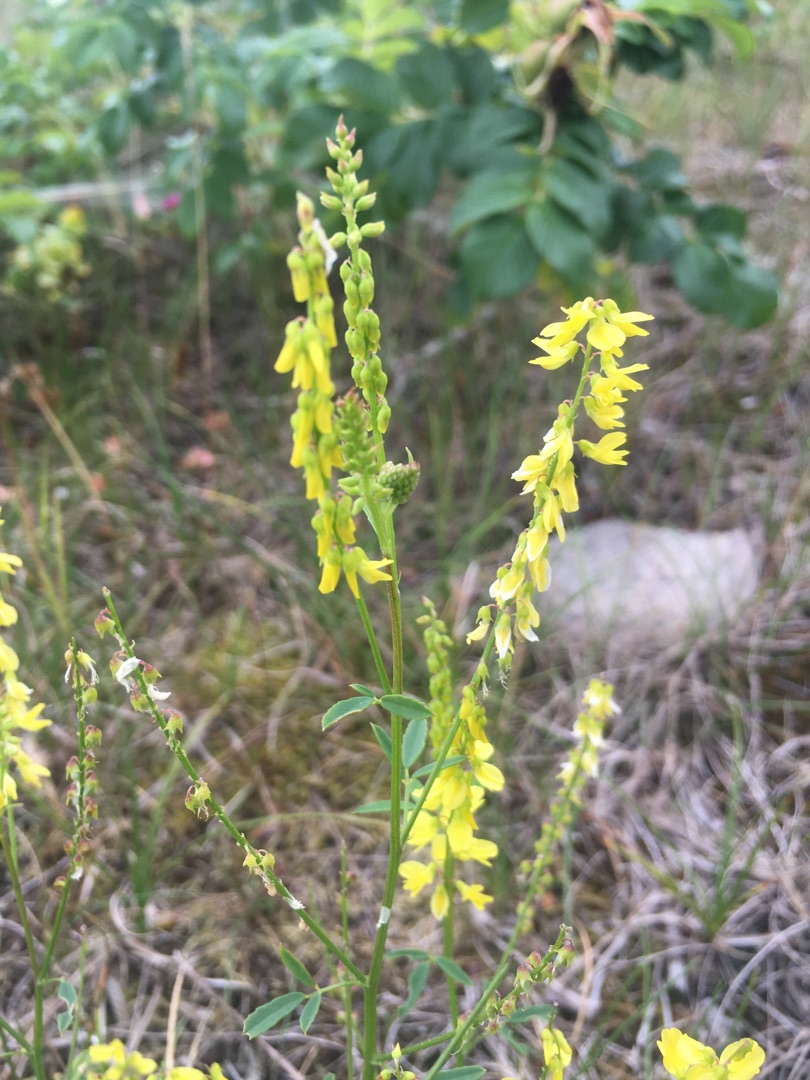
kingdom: Plantae
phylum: Tracheophyta
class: Magnoliopsida
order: Fabales
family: Fabaceae
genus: Melilotus
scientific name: Melilotus officinalis
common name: Mark-stenkløver
